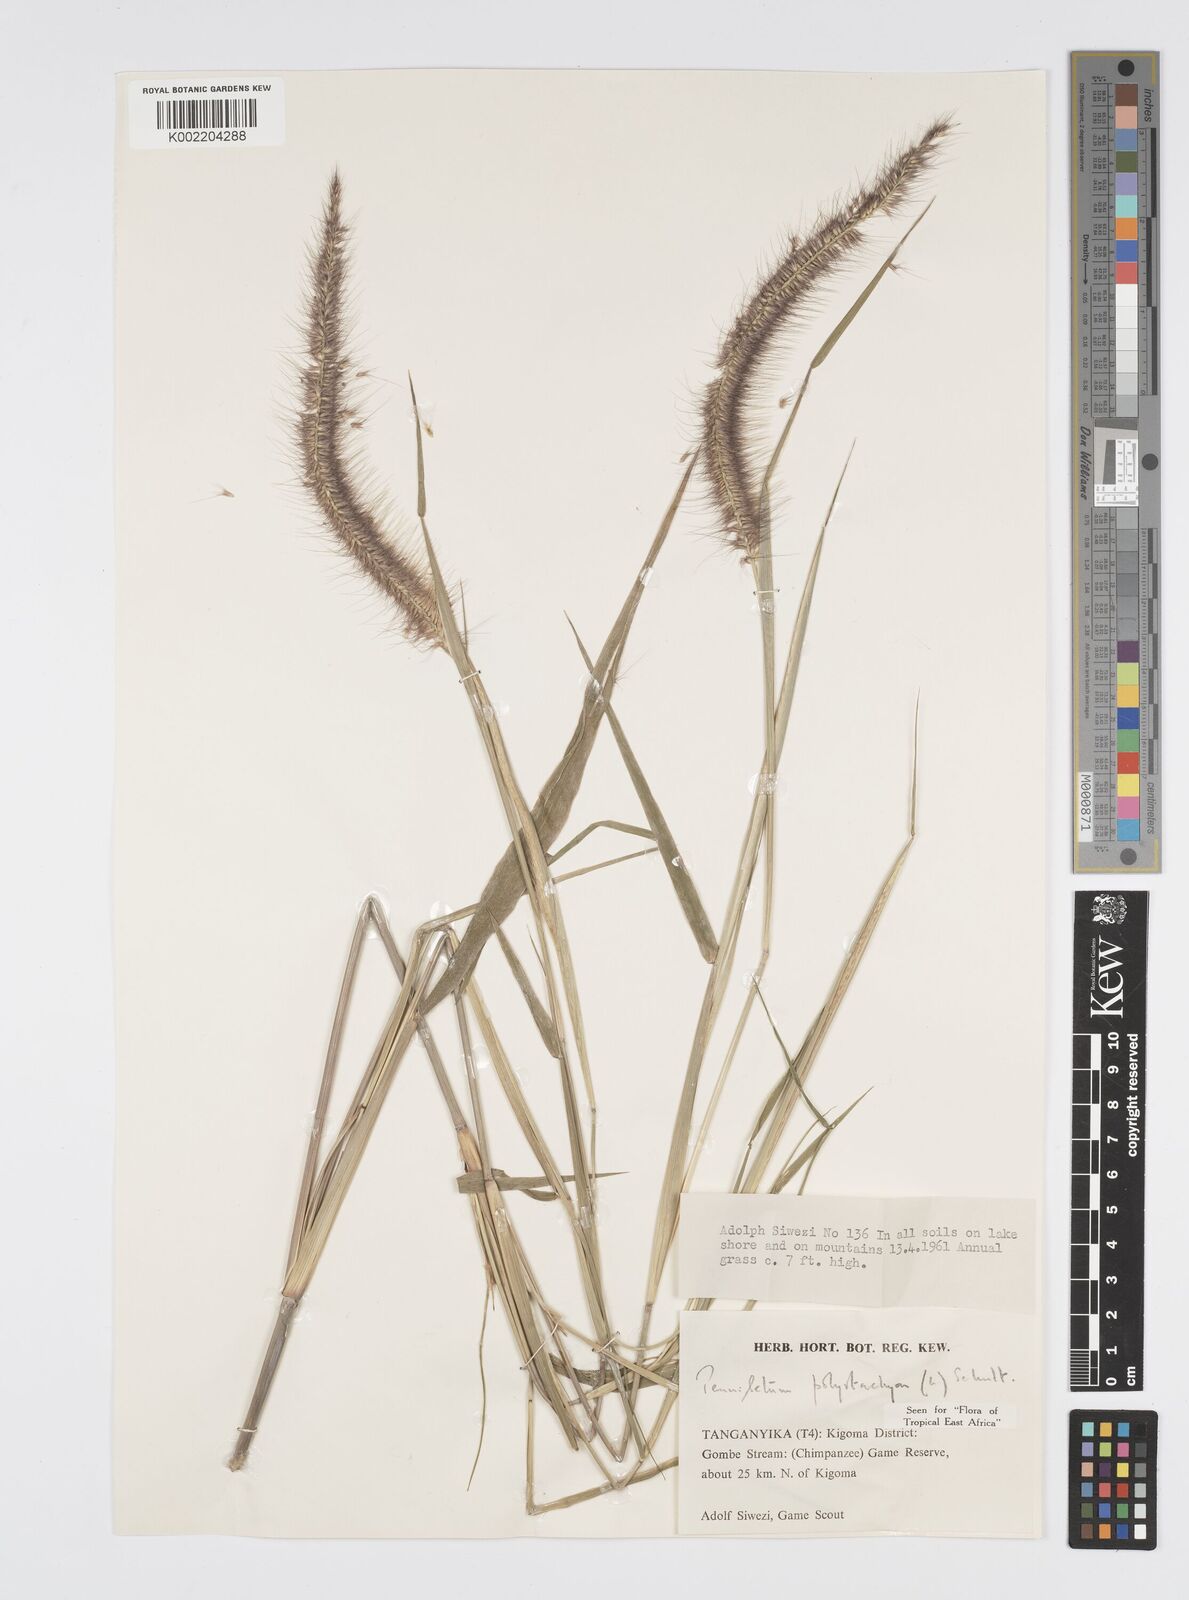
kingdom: Plantae
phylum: Tracheophyta
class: Liliopsida
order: Poales
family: Poaceae
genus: Setaria
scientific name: Setaria parviflora
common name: Knotroot bristle-grass
